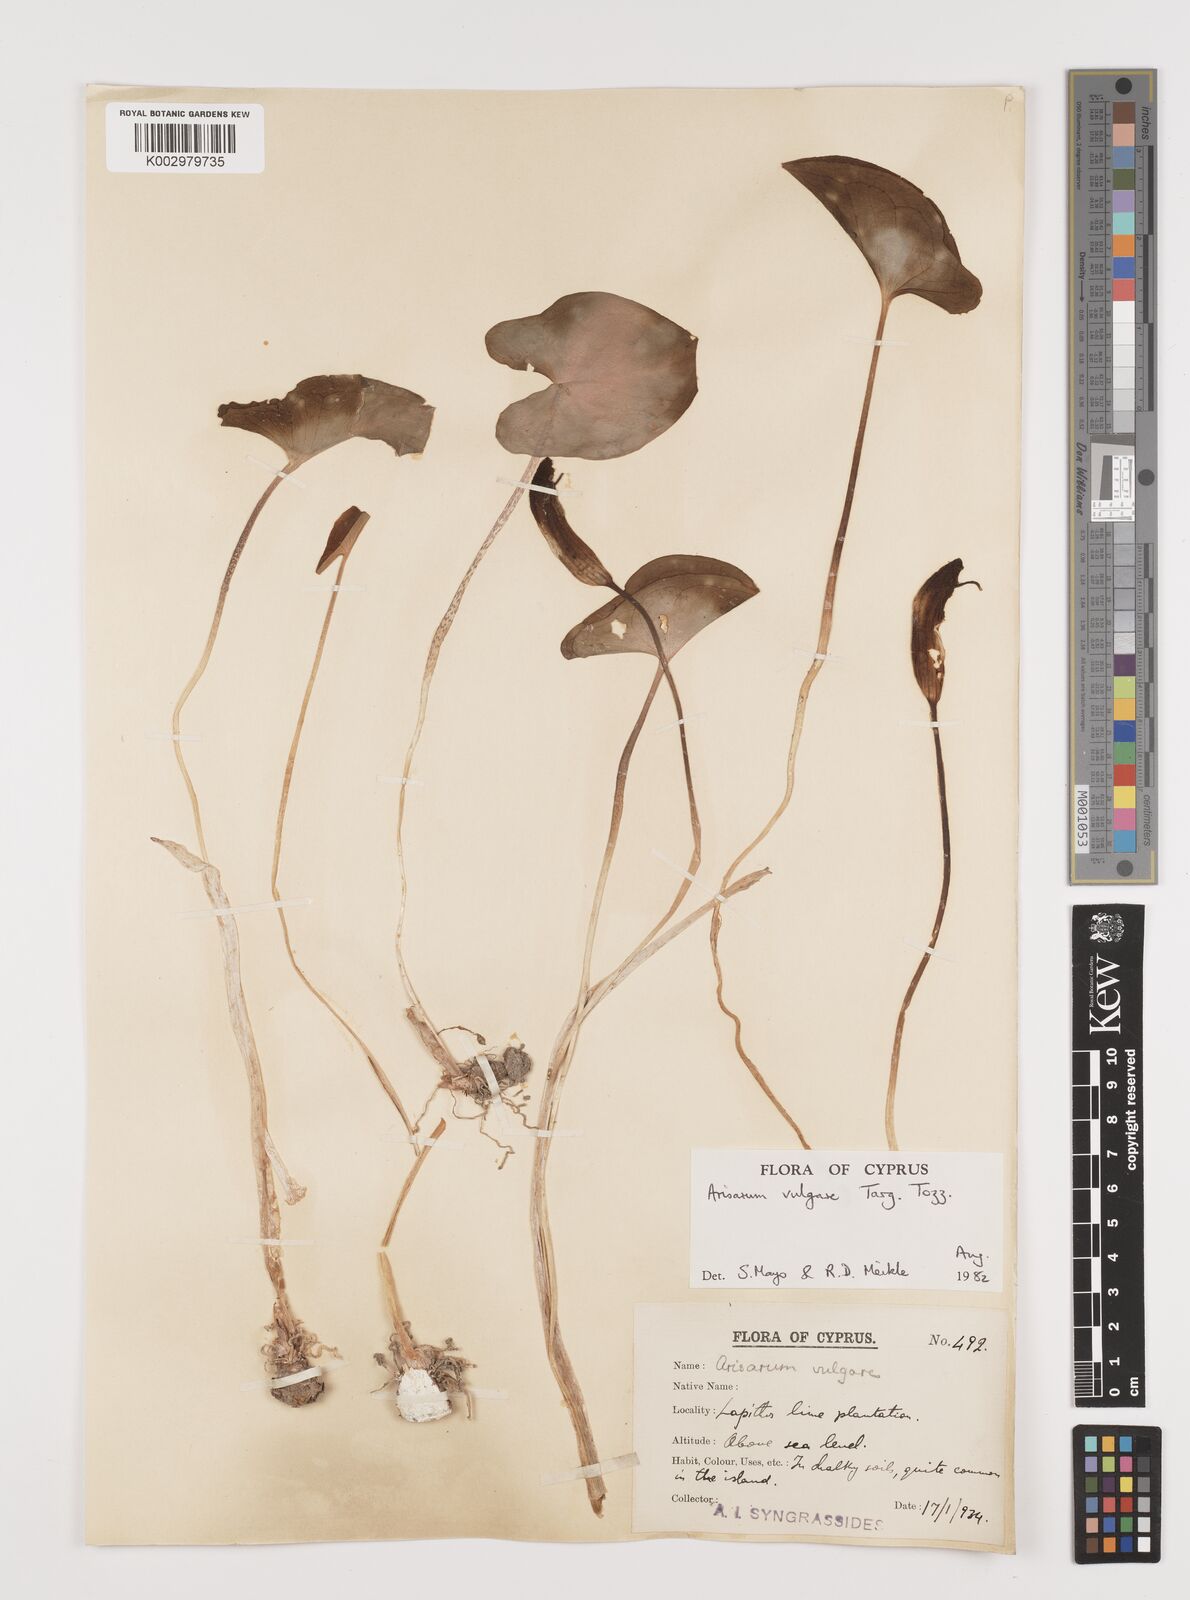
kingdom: Plantae
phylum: Tracheophyta
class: Liliopsida
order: Alismatales
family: Araceae
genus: Arisarum
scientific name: Arisarum vulgare
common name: Common arisarum
